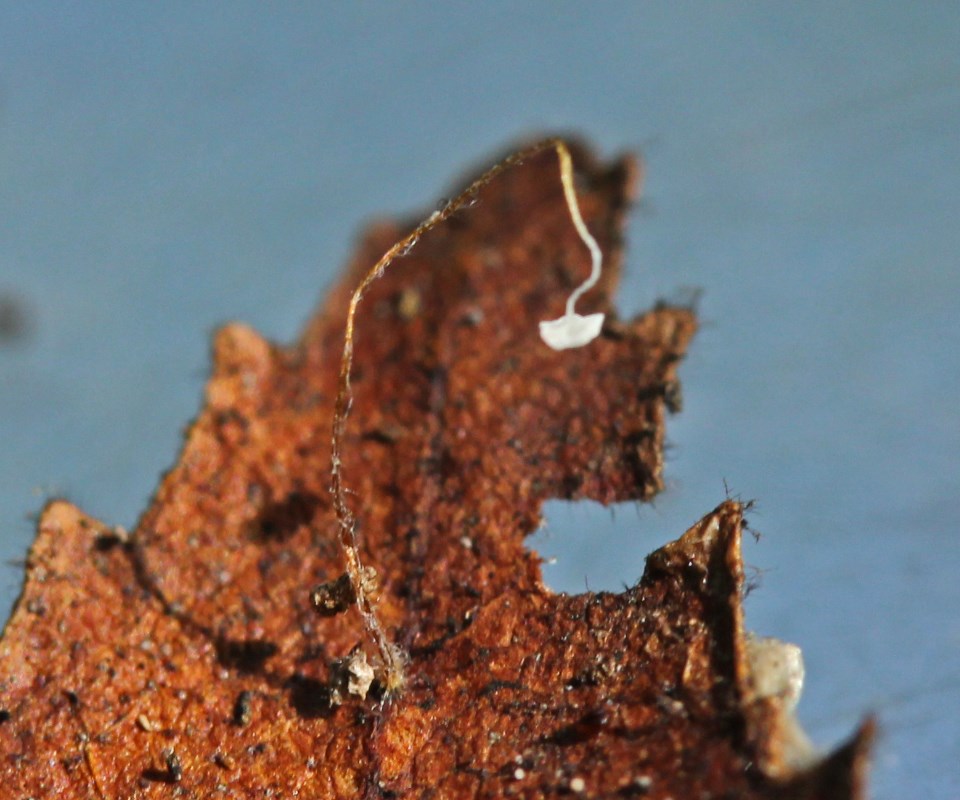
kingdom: Fungi
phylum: Basidiomycota
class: Agaricomycetes
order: Agaricales
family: Physalacriaceae
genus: Rhizomarasmius
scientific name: Rhizomarasmius setosus
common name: bøgeblads-bruskhat
